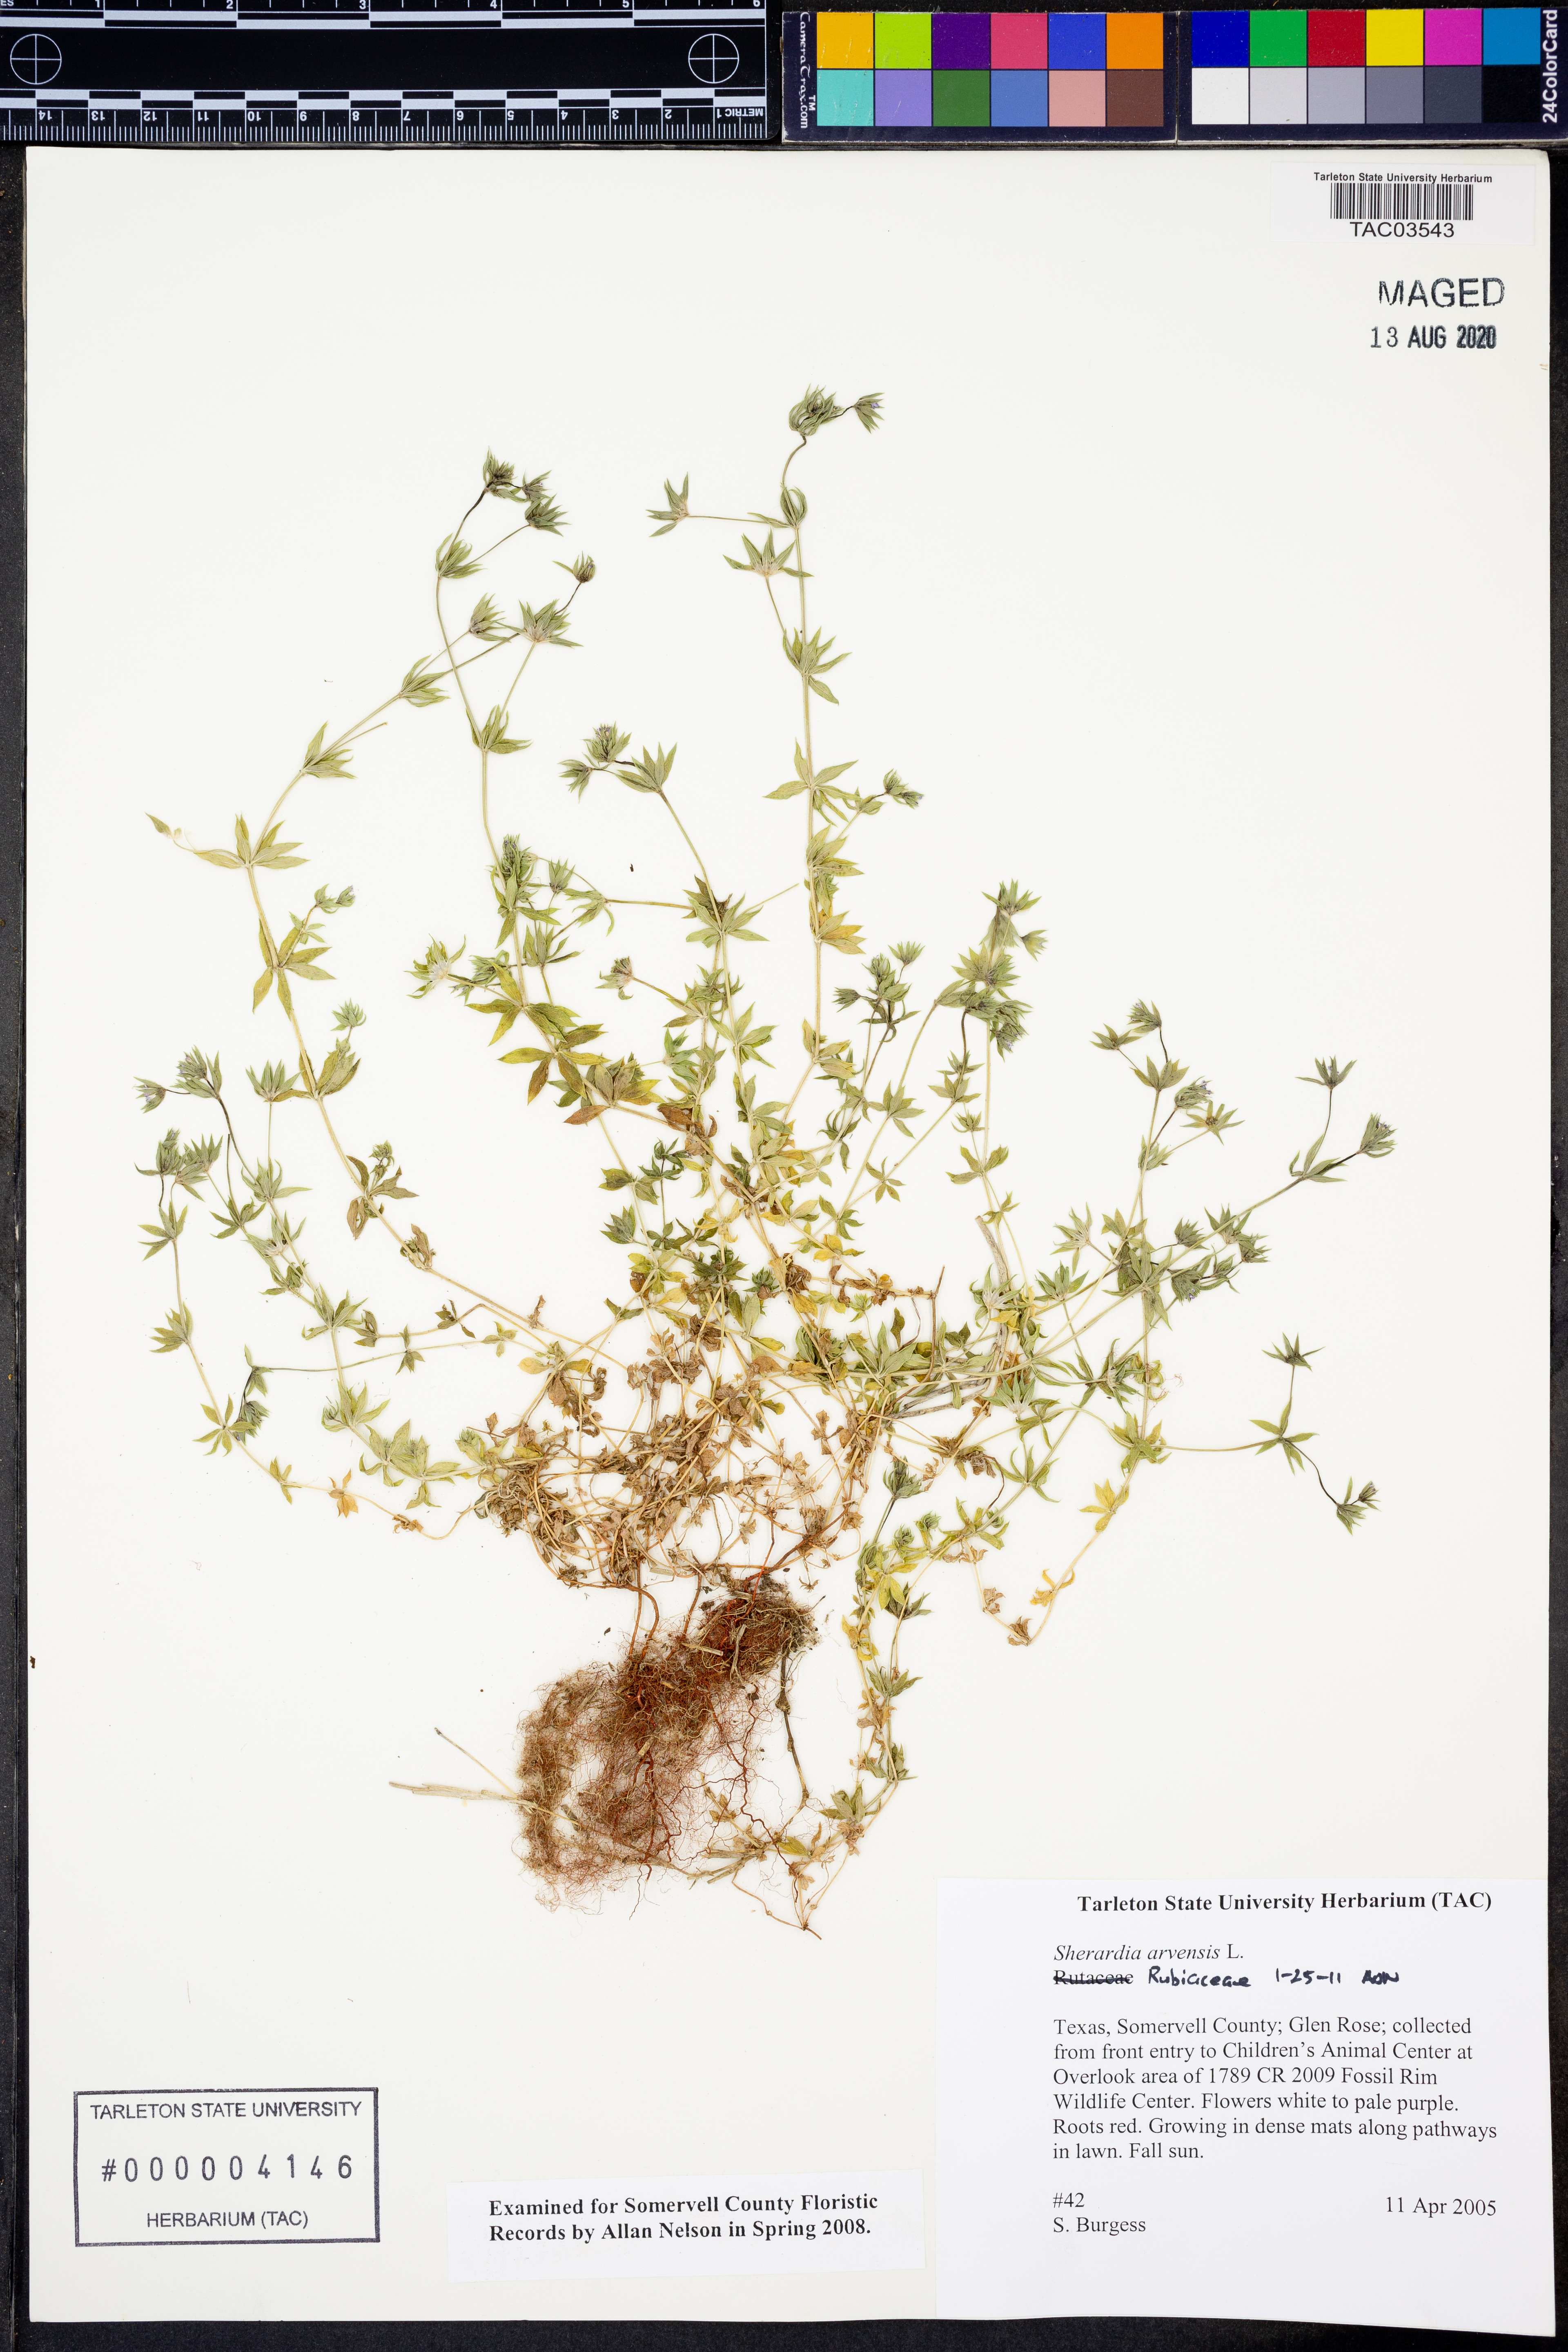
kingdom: Plantae
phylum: Tracheophyta
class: Magnoliopsida
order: Gentianales
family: Rubiaceae
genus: Sherardia
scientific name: Sherardia arvensis
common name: Field madder
